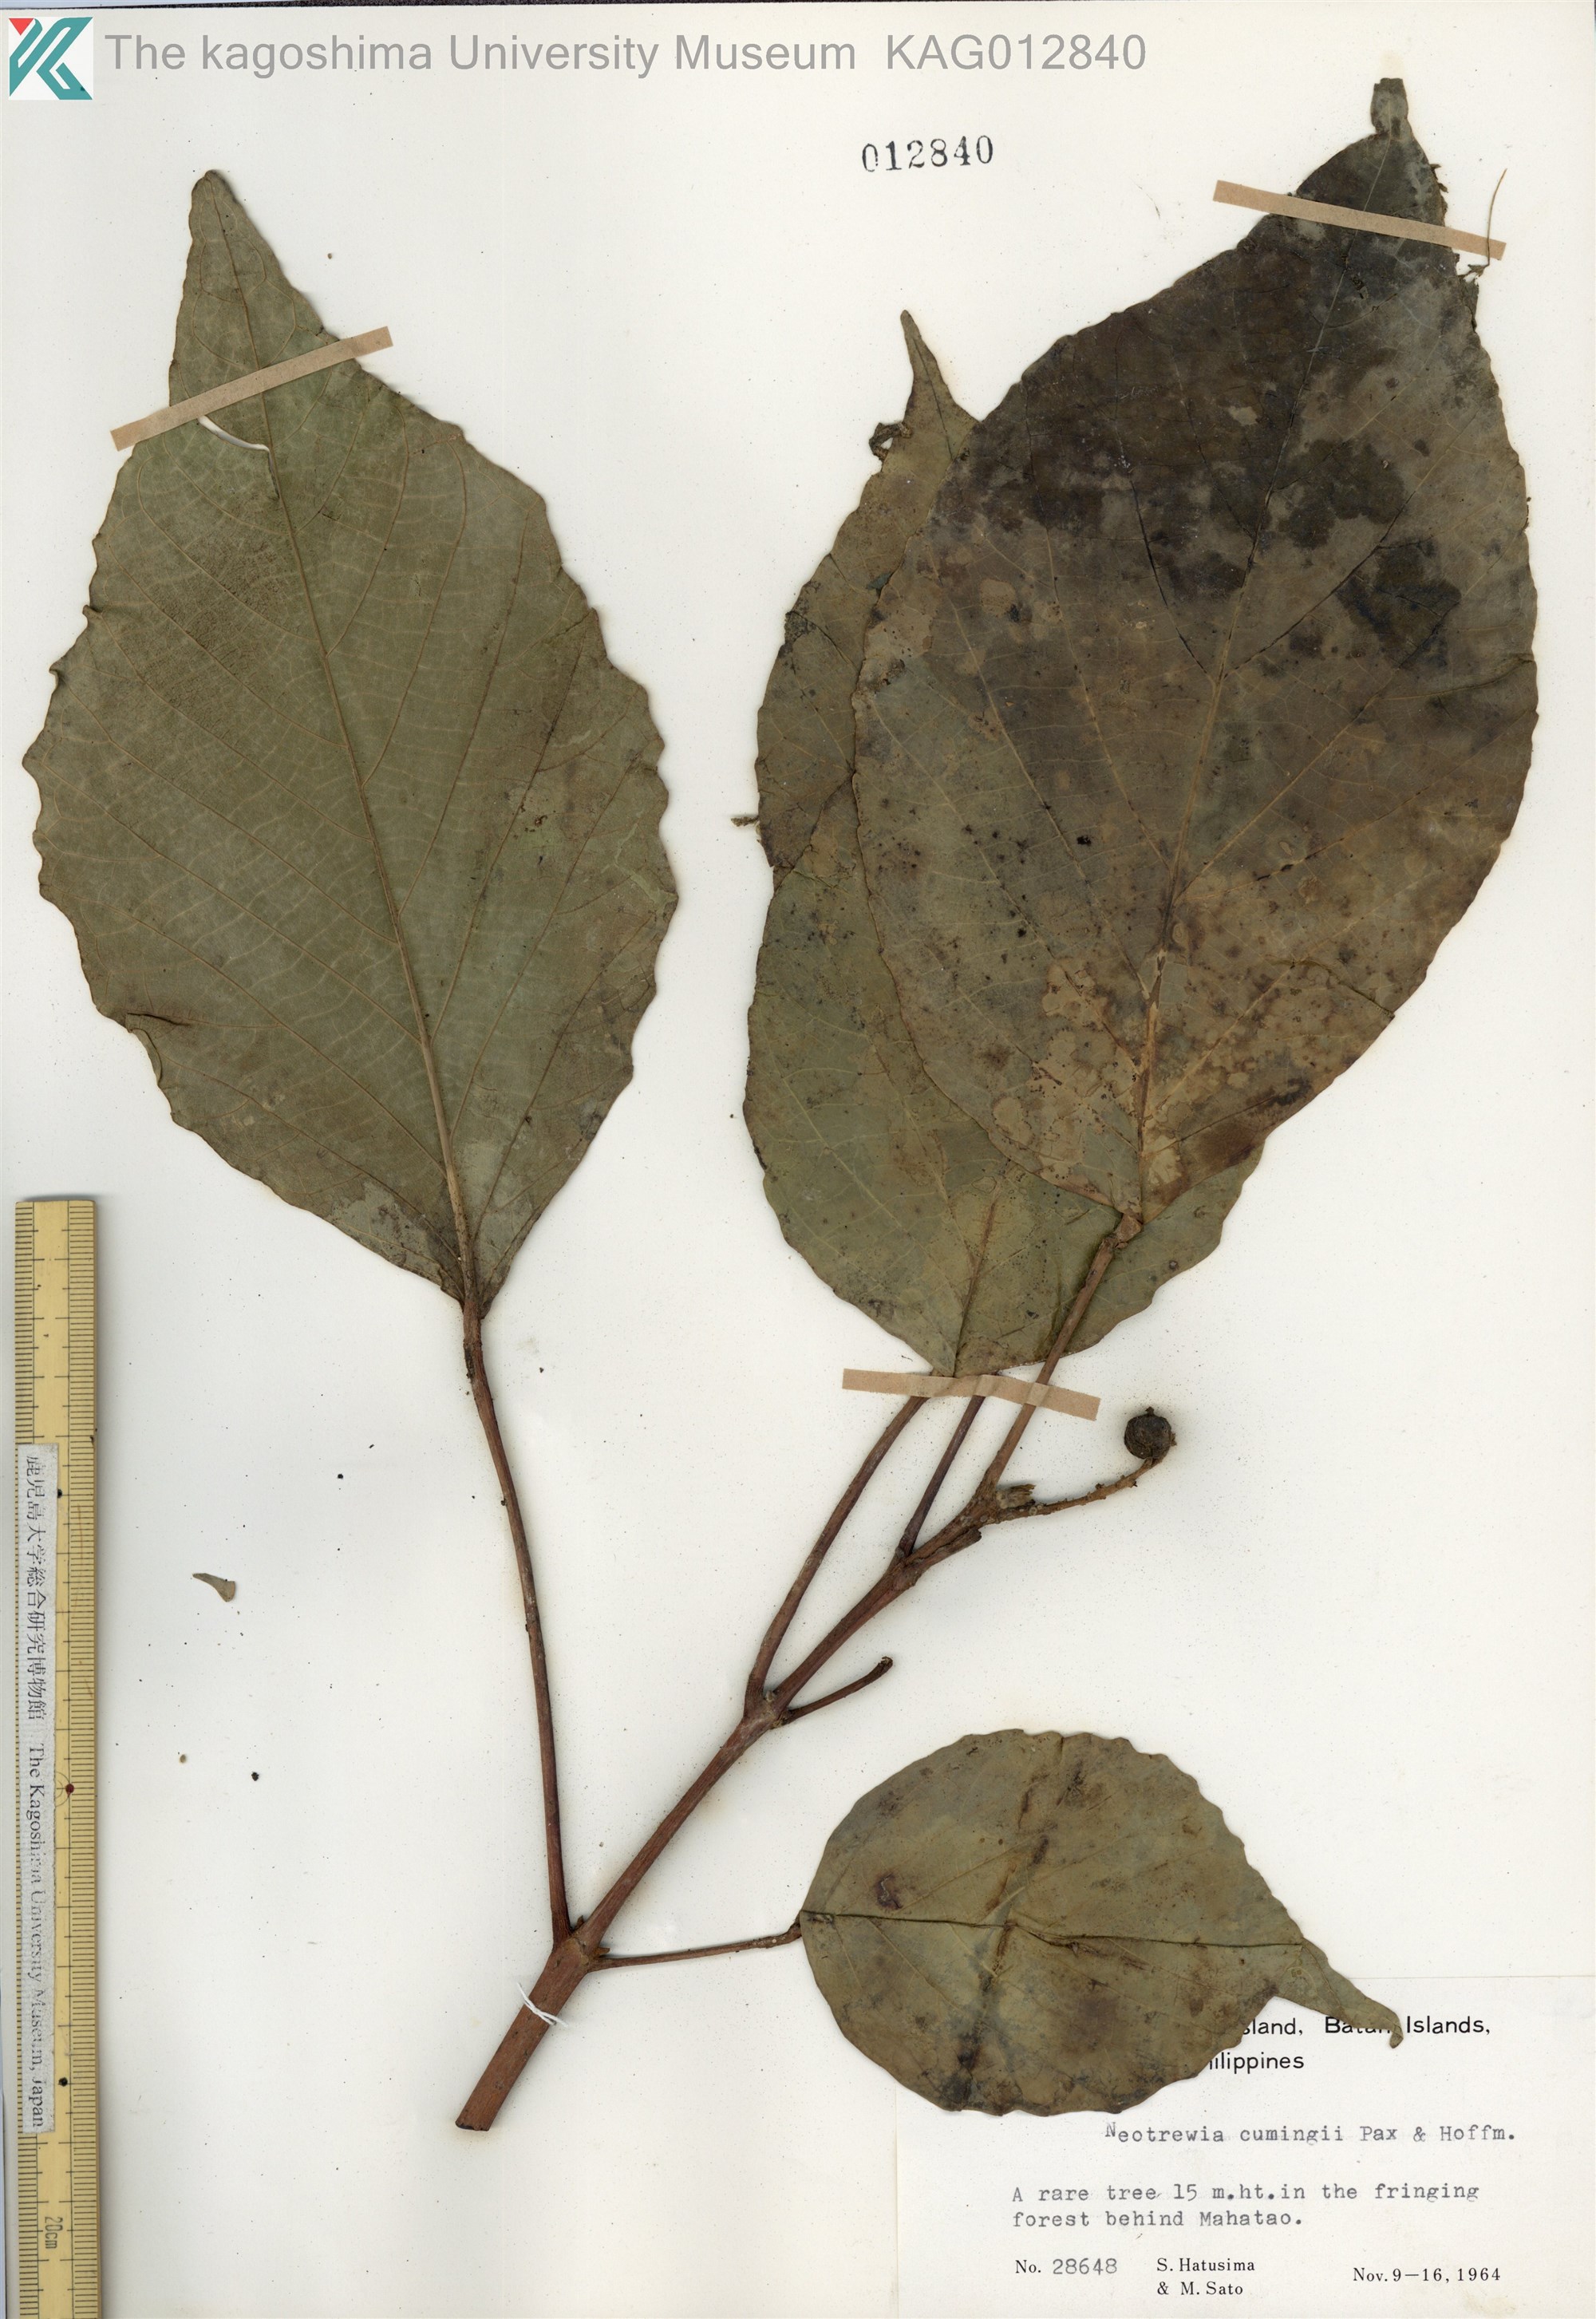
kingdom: Plantae
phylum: Tracheophyta
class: Magnoliopsida
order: Malpighiales
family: Euphorbiaceae
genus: Mallotus
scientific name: Mallotus cumingii
